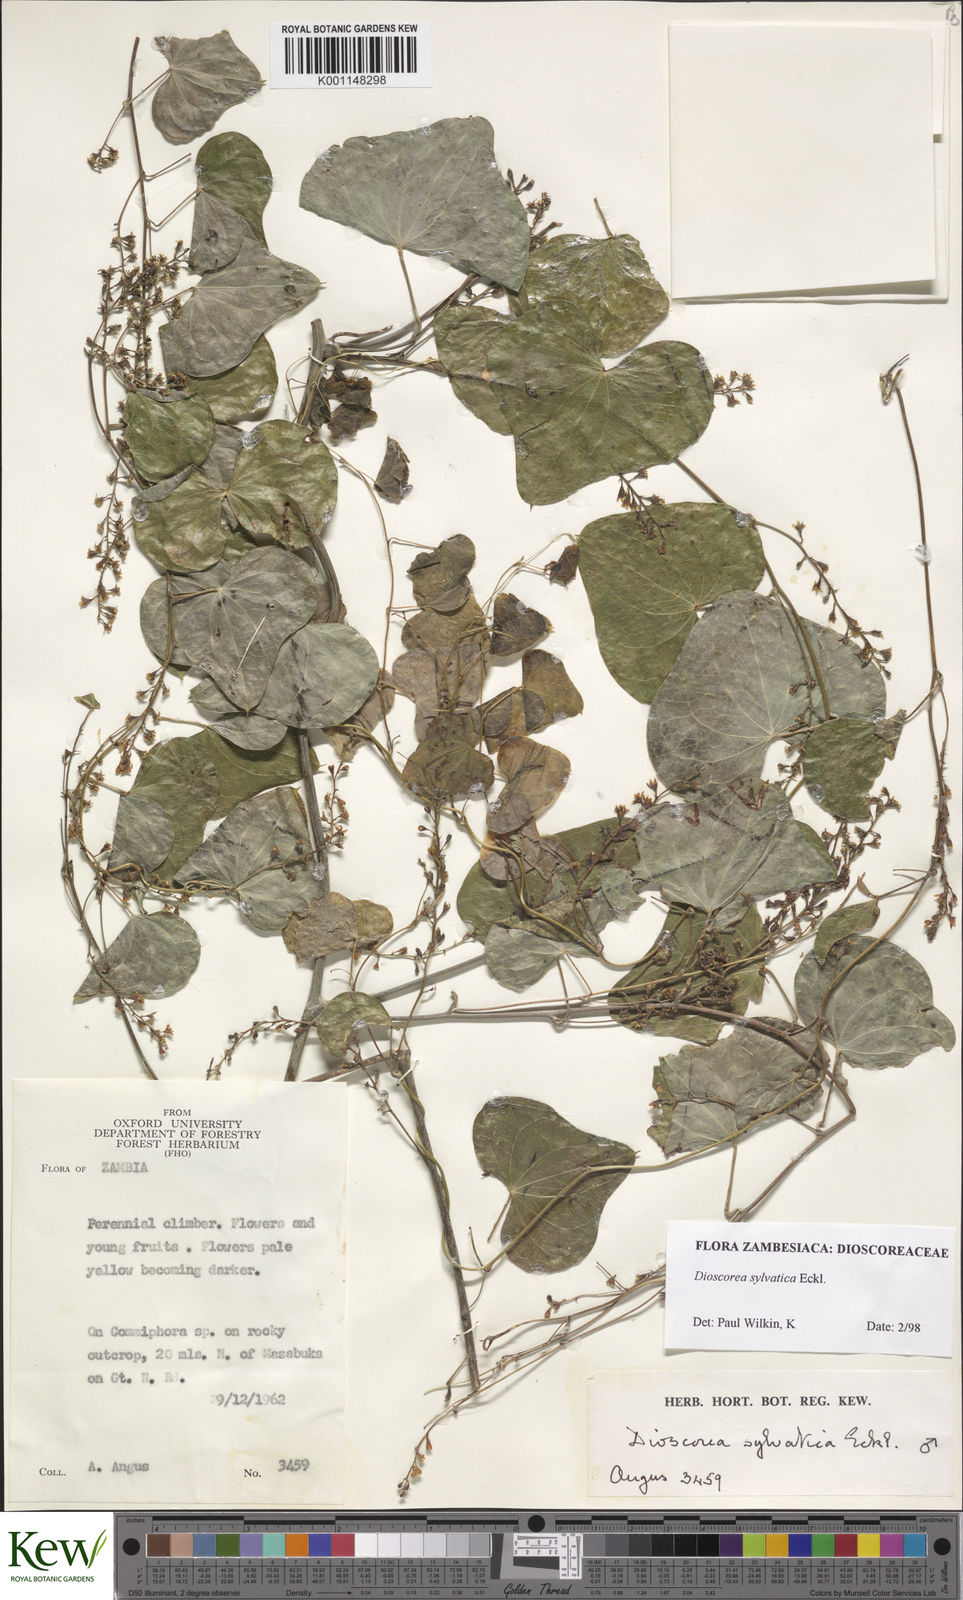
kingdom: Plantae
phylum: Tracheophyta
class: Liliopsida
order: Dioscoreales
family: Dioscoreaceae
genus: Dioscorea
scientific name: Dioscorea sylvatica
